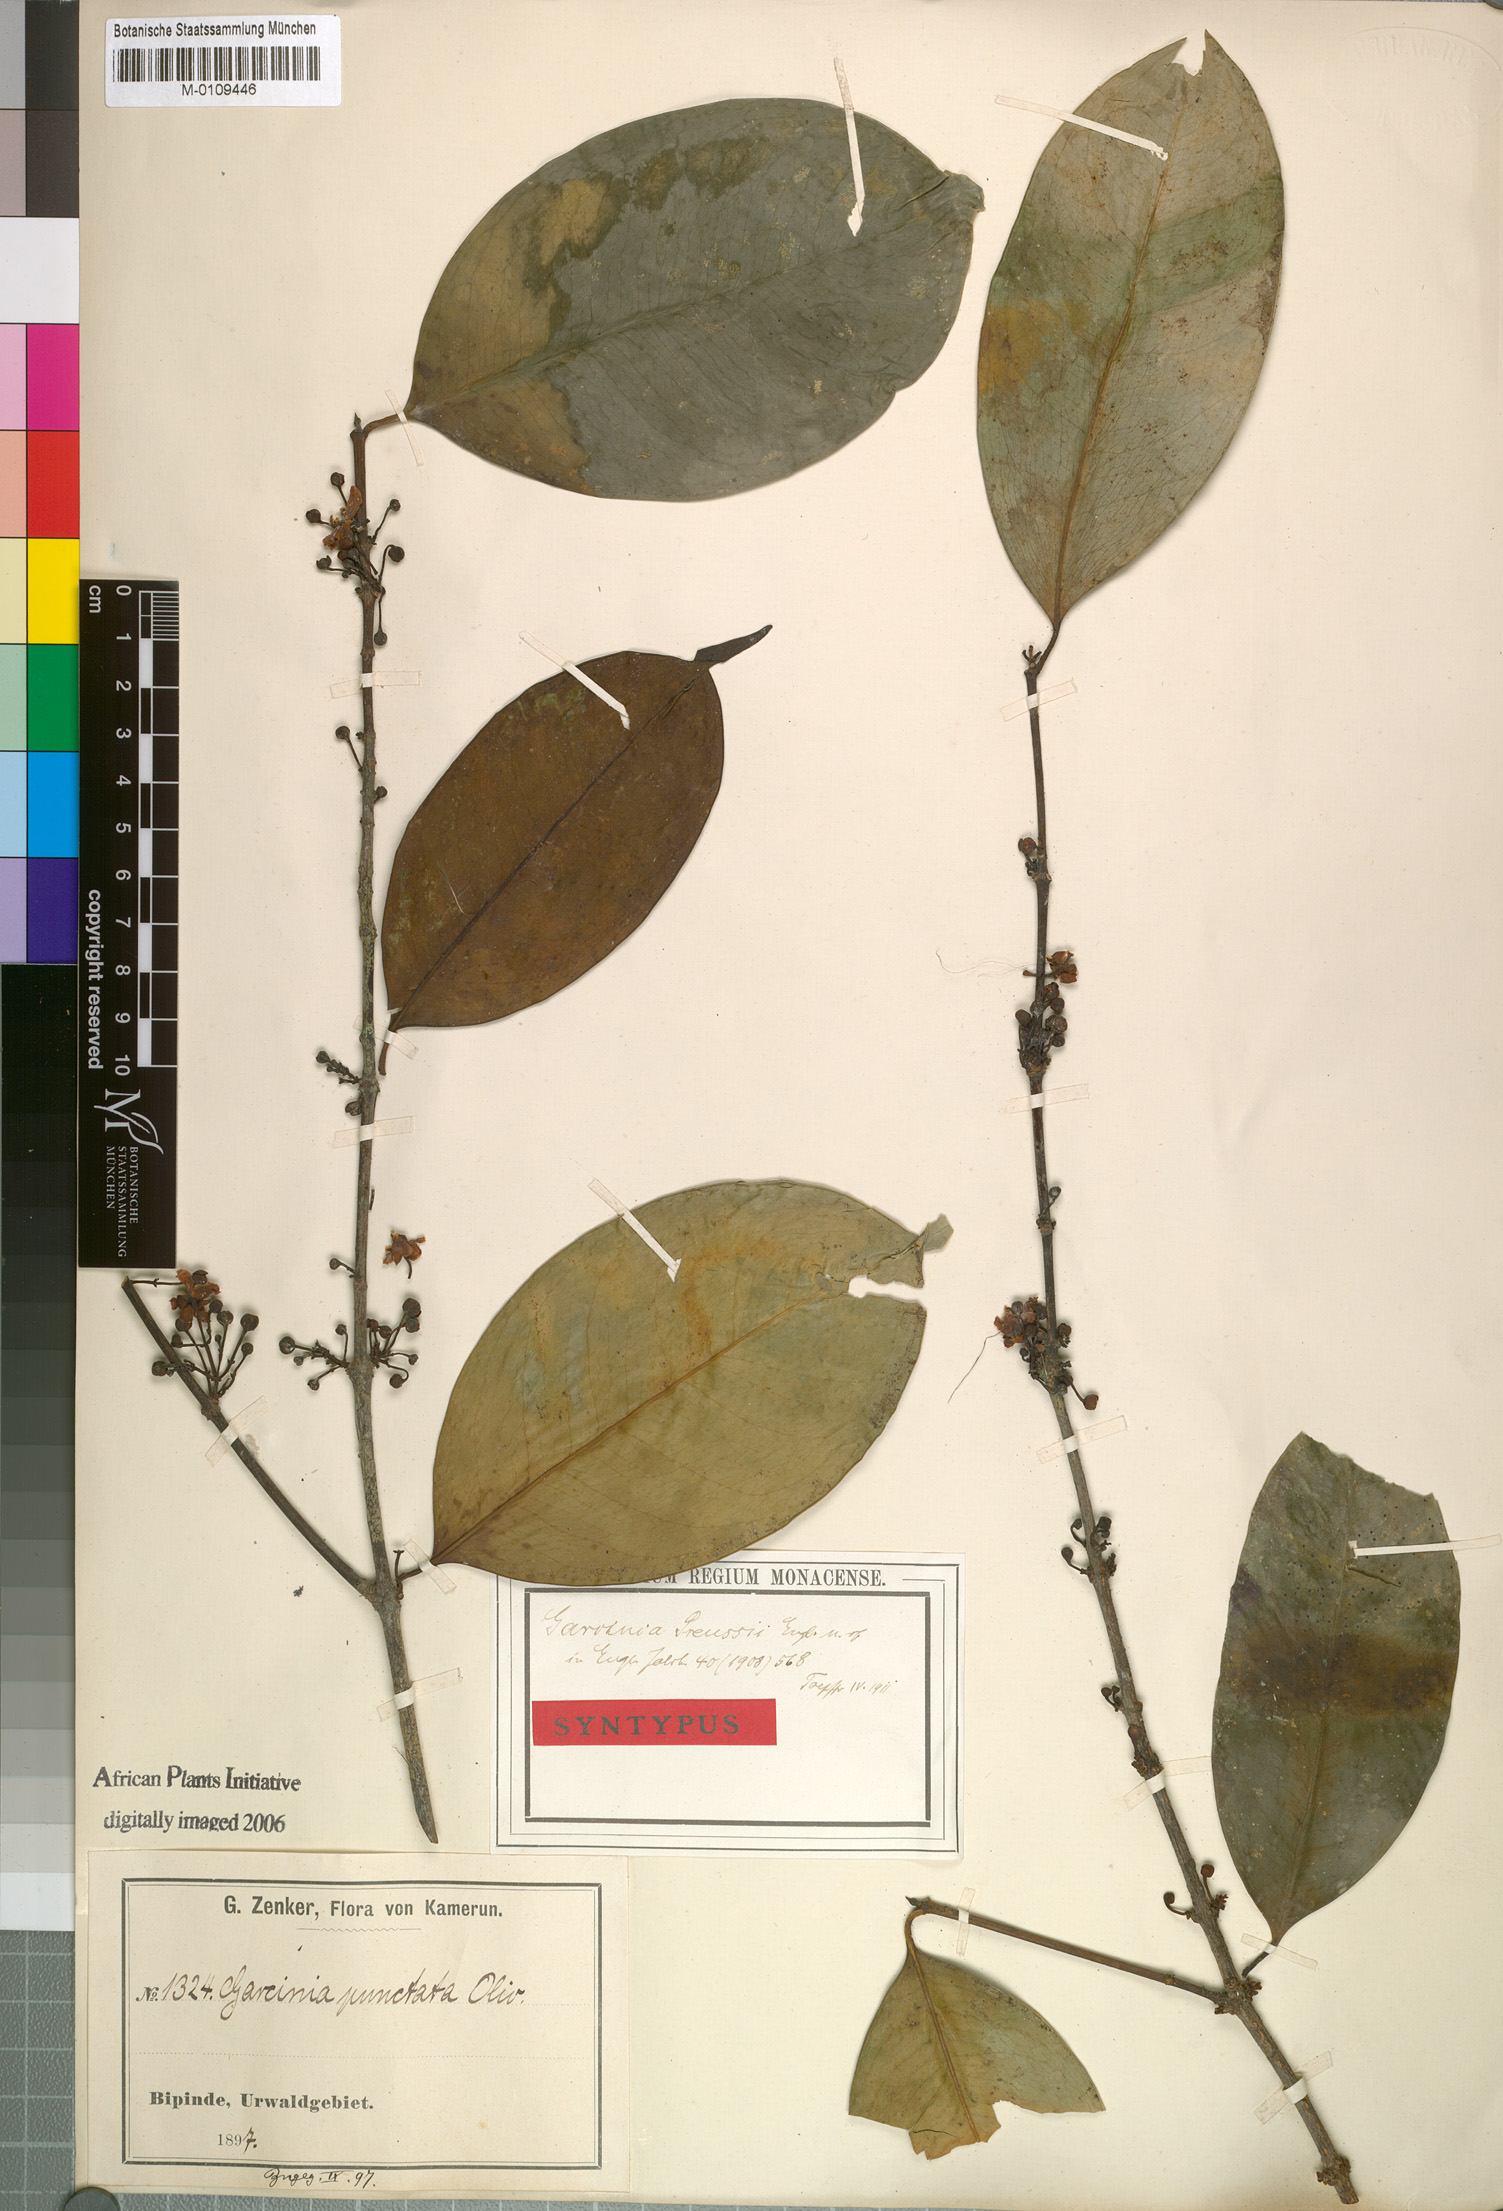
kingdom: Plantae
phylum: Tracheophyta
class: Magnoliopsida
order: Malpighiales
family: Clusiaceae
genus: Garcinia
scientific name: Garcinia preussii
